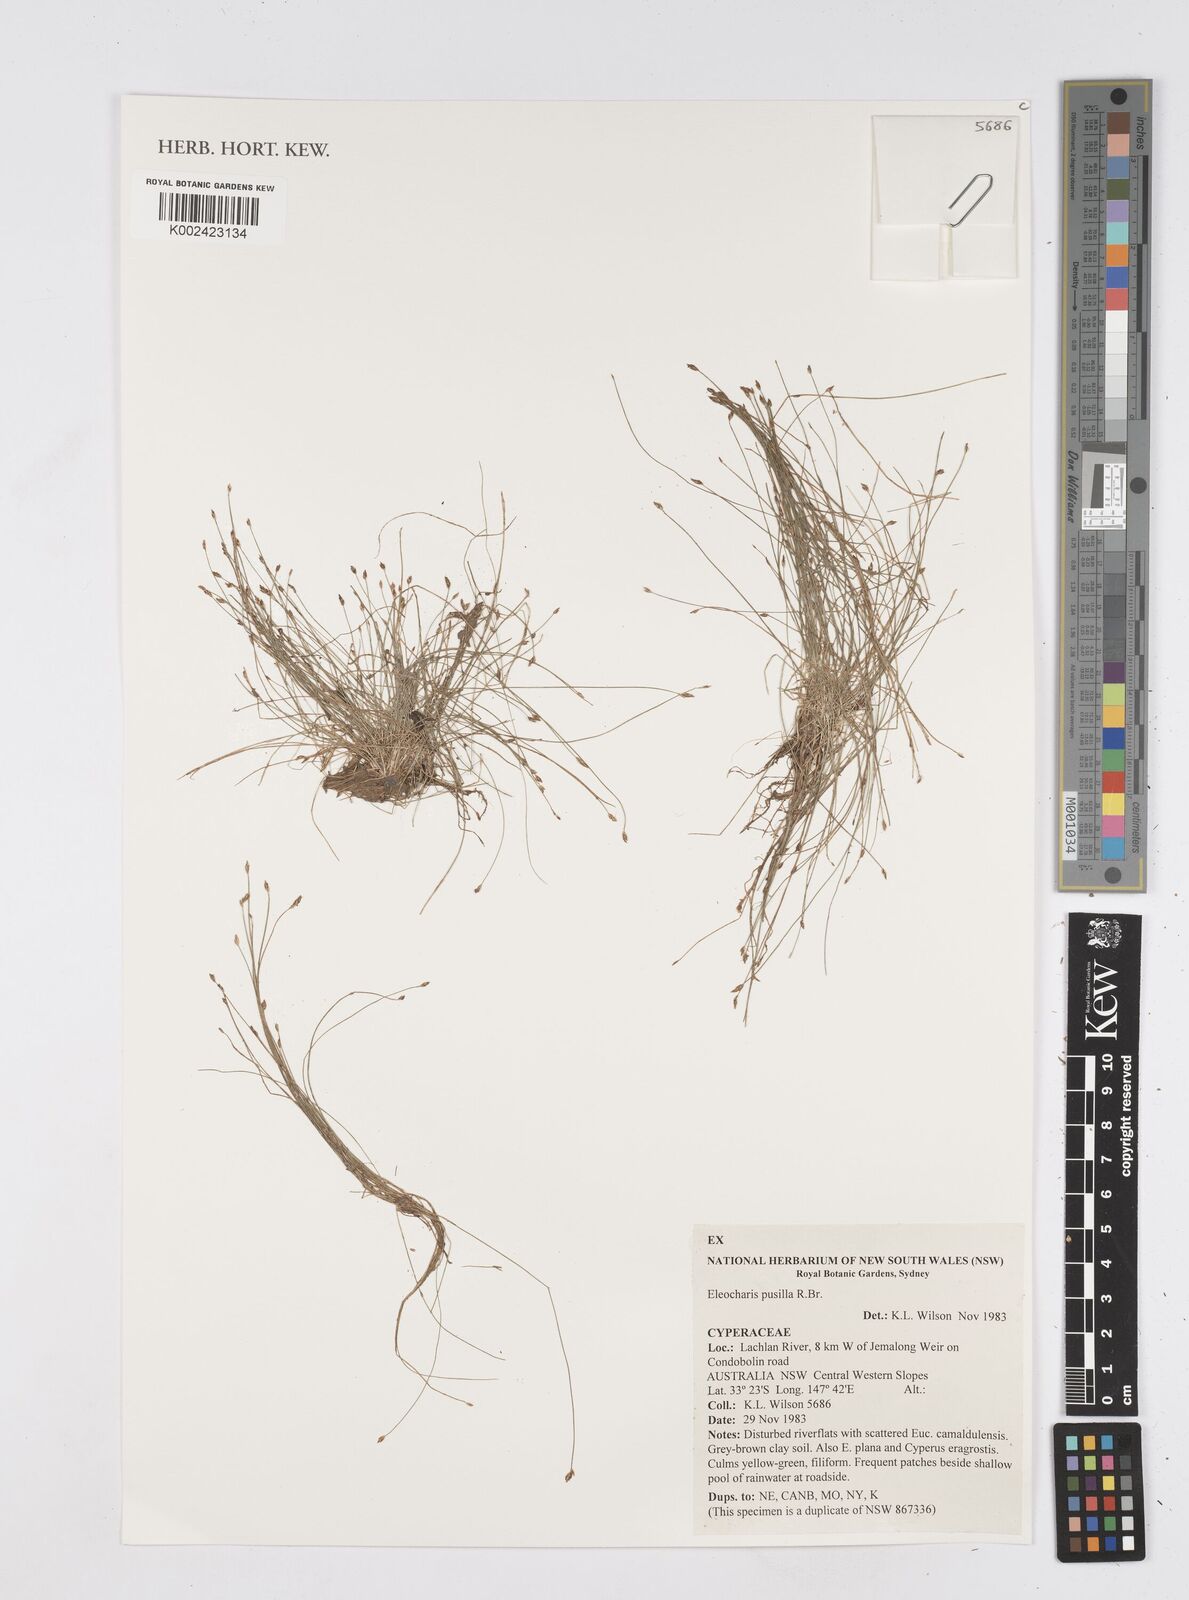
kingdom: Plantae
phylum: Tracheophyta
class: Liliopsida
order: Poales
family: Cyperaceae
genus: Eleocharis
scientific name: Eleocharis pusilla
